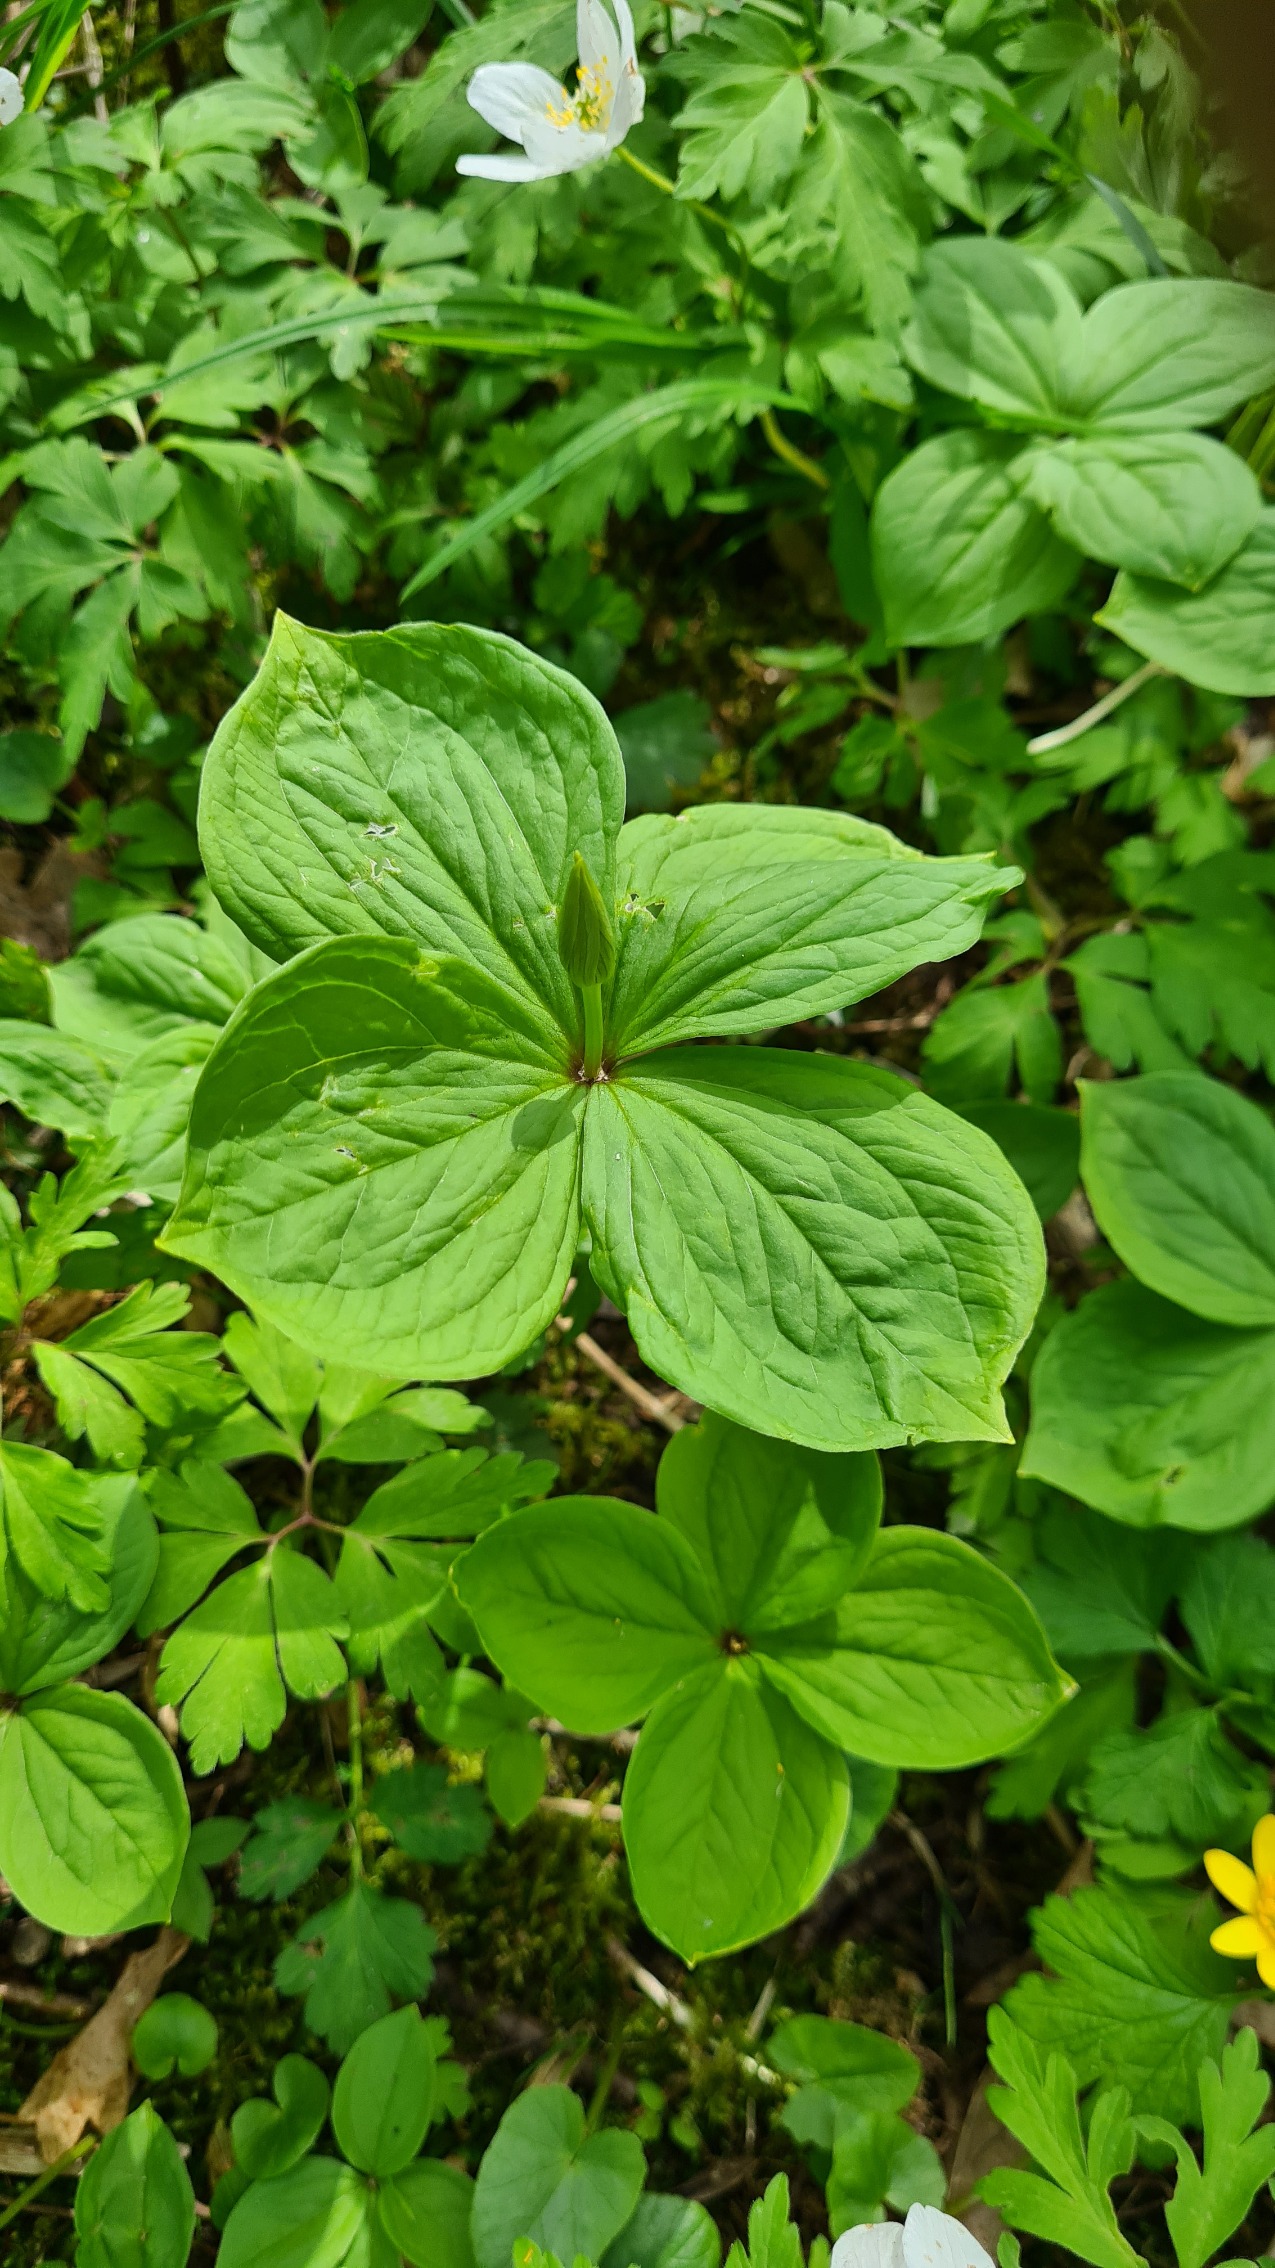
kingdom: Plantae
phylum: Tracheophyta
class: Liliopsida
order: Liliales
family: Melanthiaceae
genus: Paris
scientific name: Paris quadrifolia
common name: Firblad
